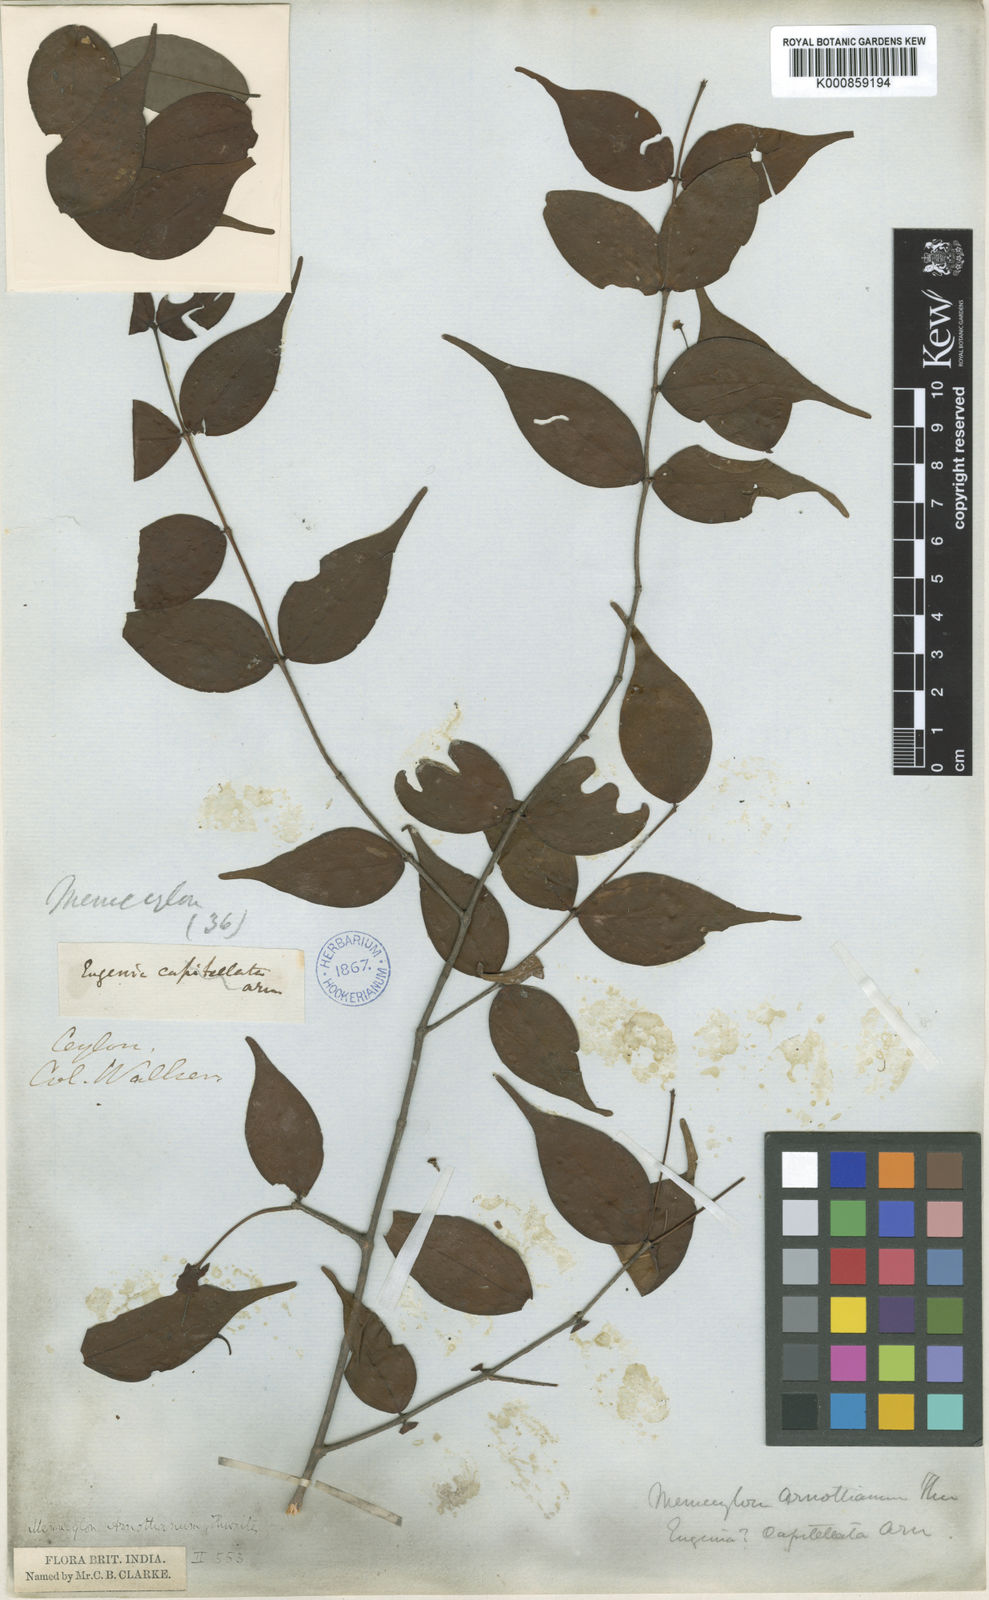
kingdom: Plantae
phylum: Tracheophyta
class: Magnoliopsida
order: Myrtales
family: Melastomataceae
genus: Lijndenia
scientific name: Lijndenia capitellata
